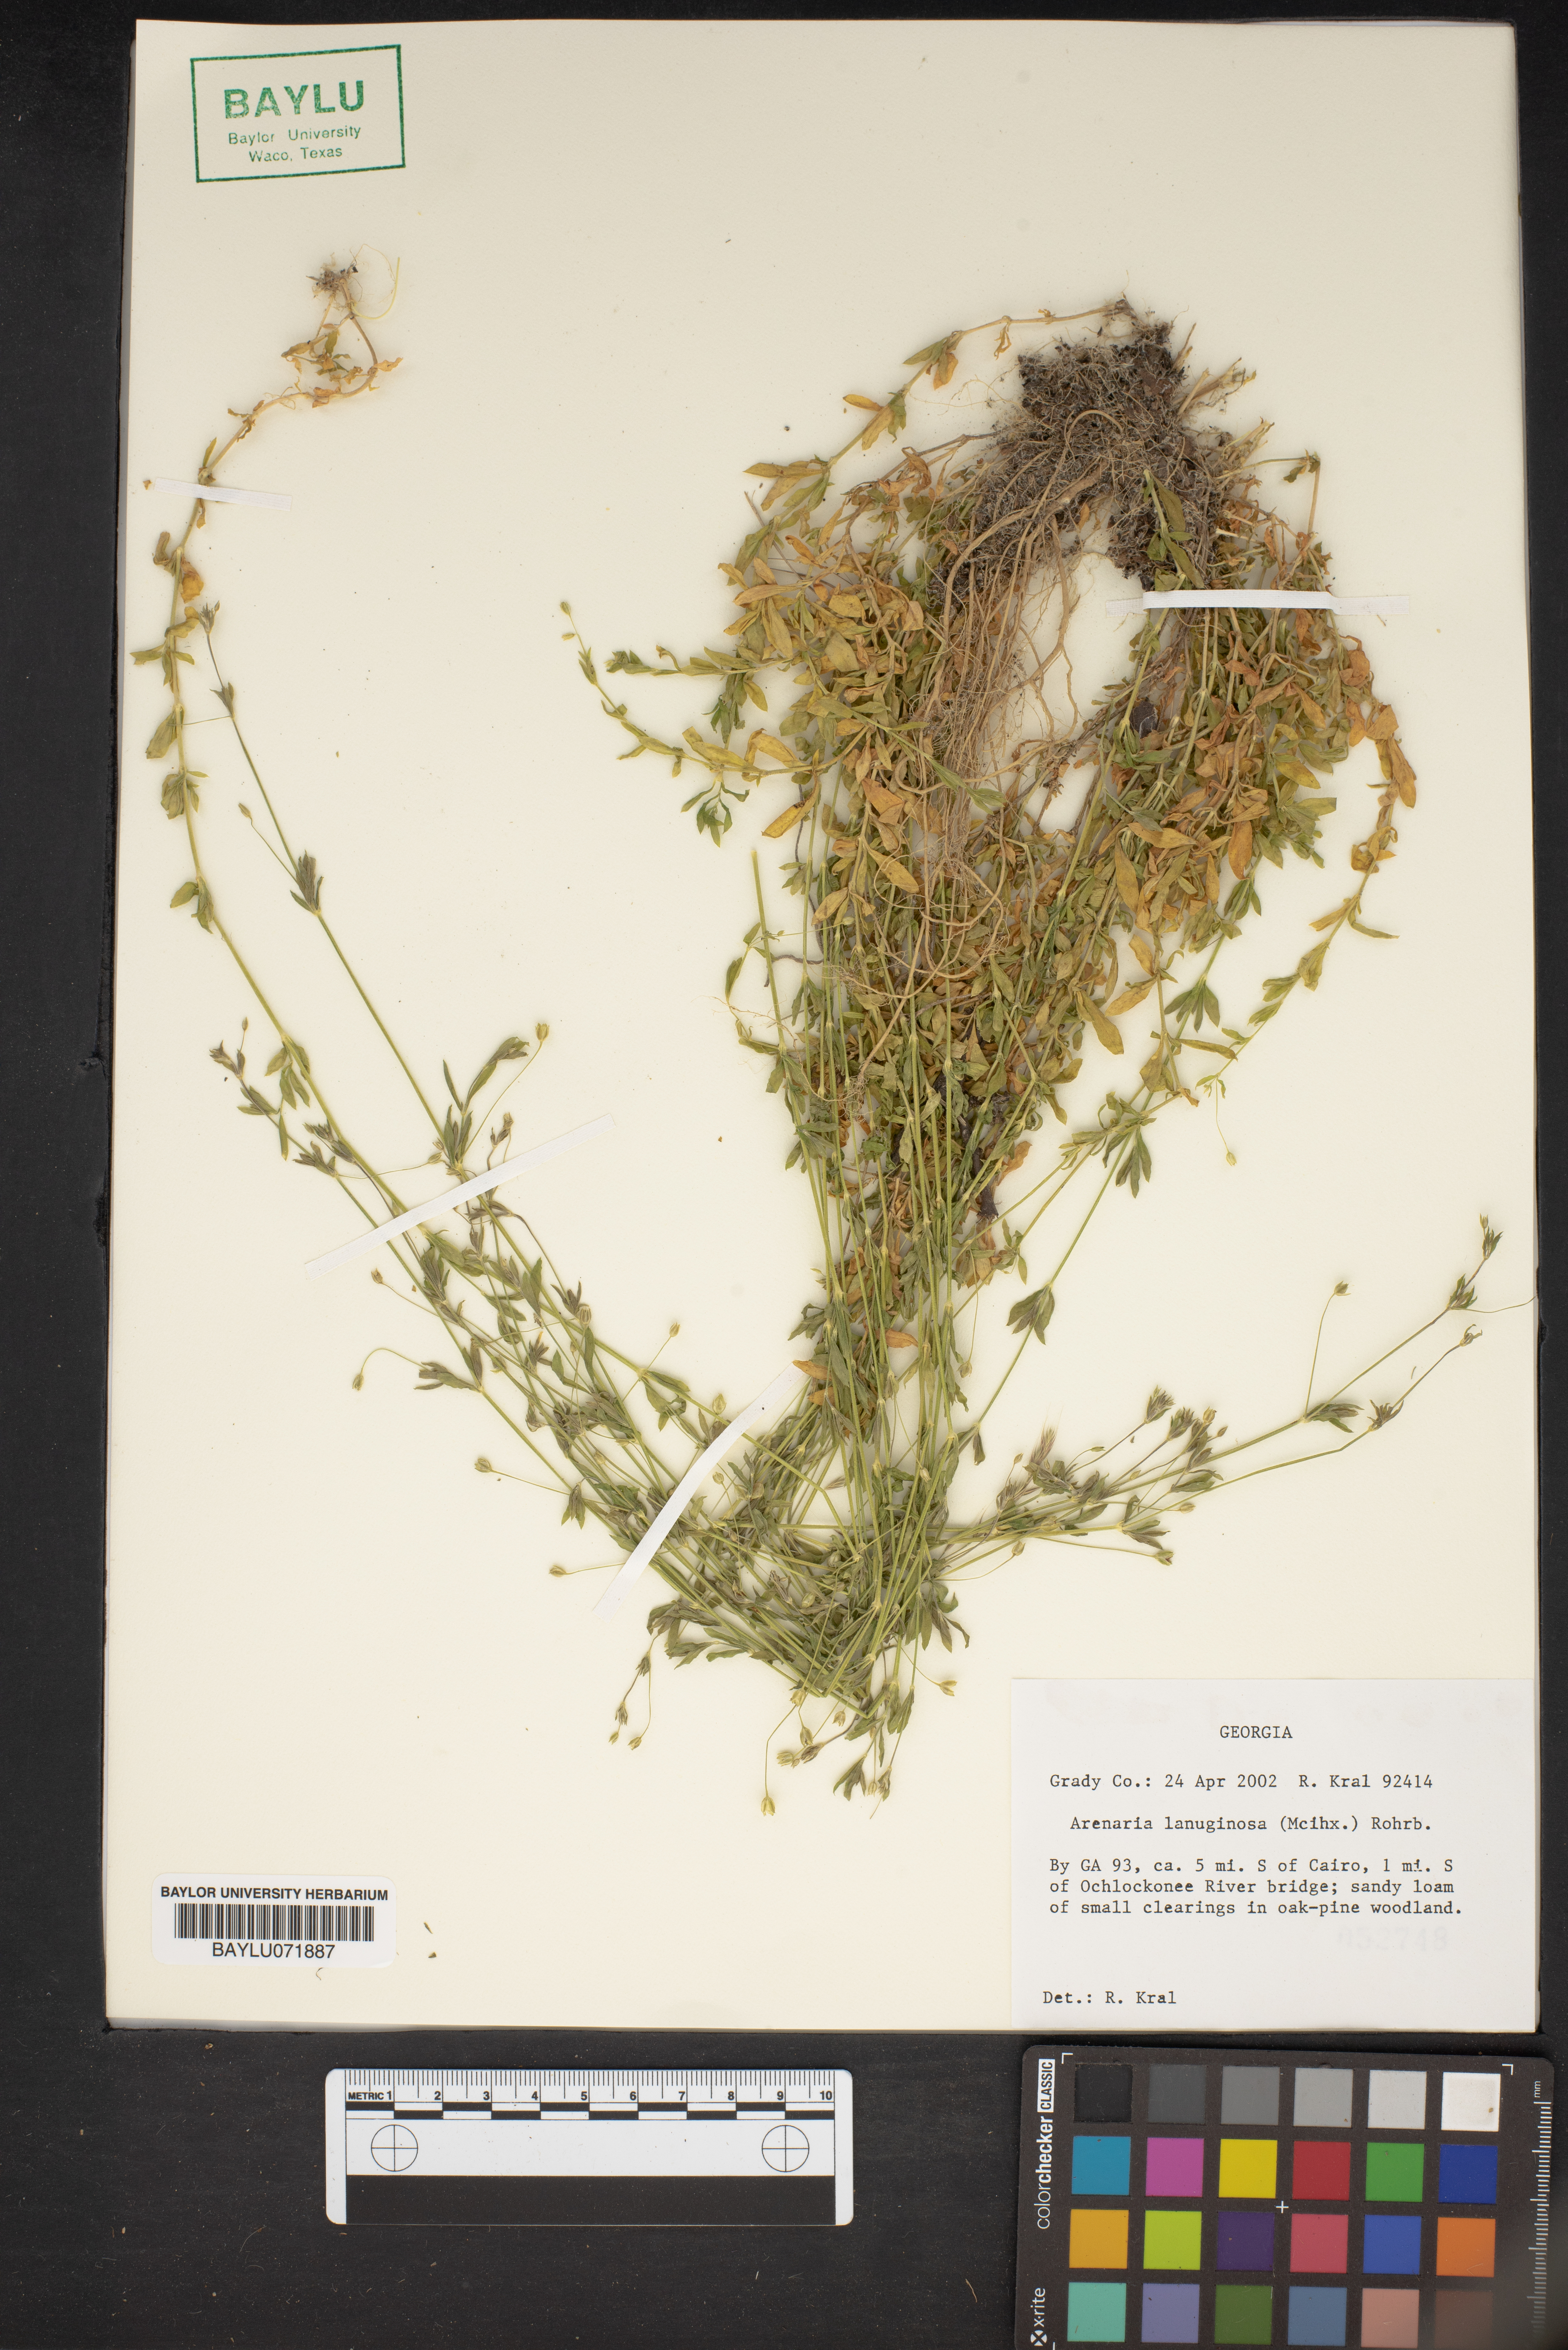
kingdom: Plantae
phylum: Tracheophyta
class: Magnoliopsida
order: Caryophyllales
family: Caryophyllaceae
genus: Arenaria
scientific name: Arenaria lanuginosa
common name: Spread sandwort
